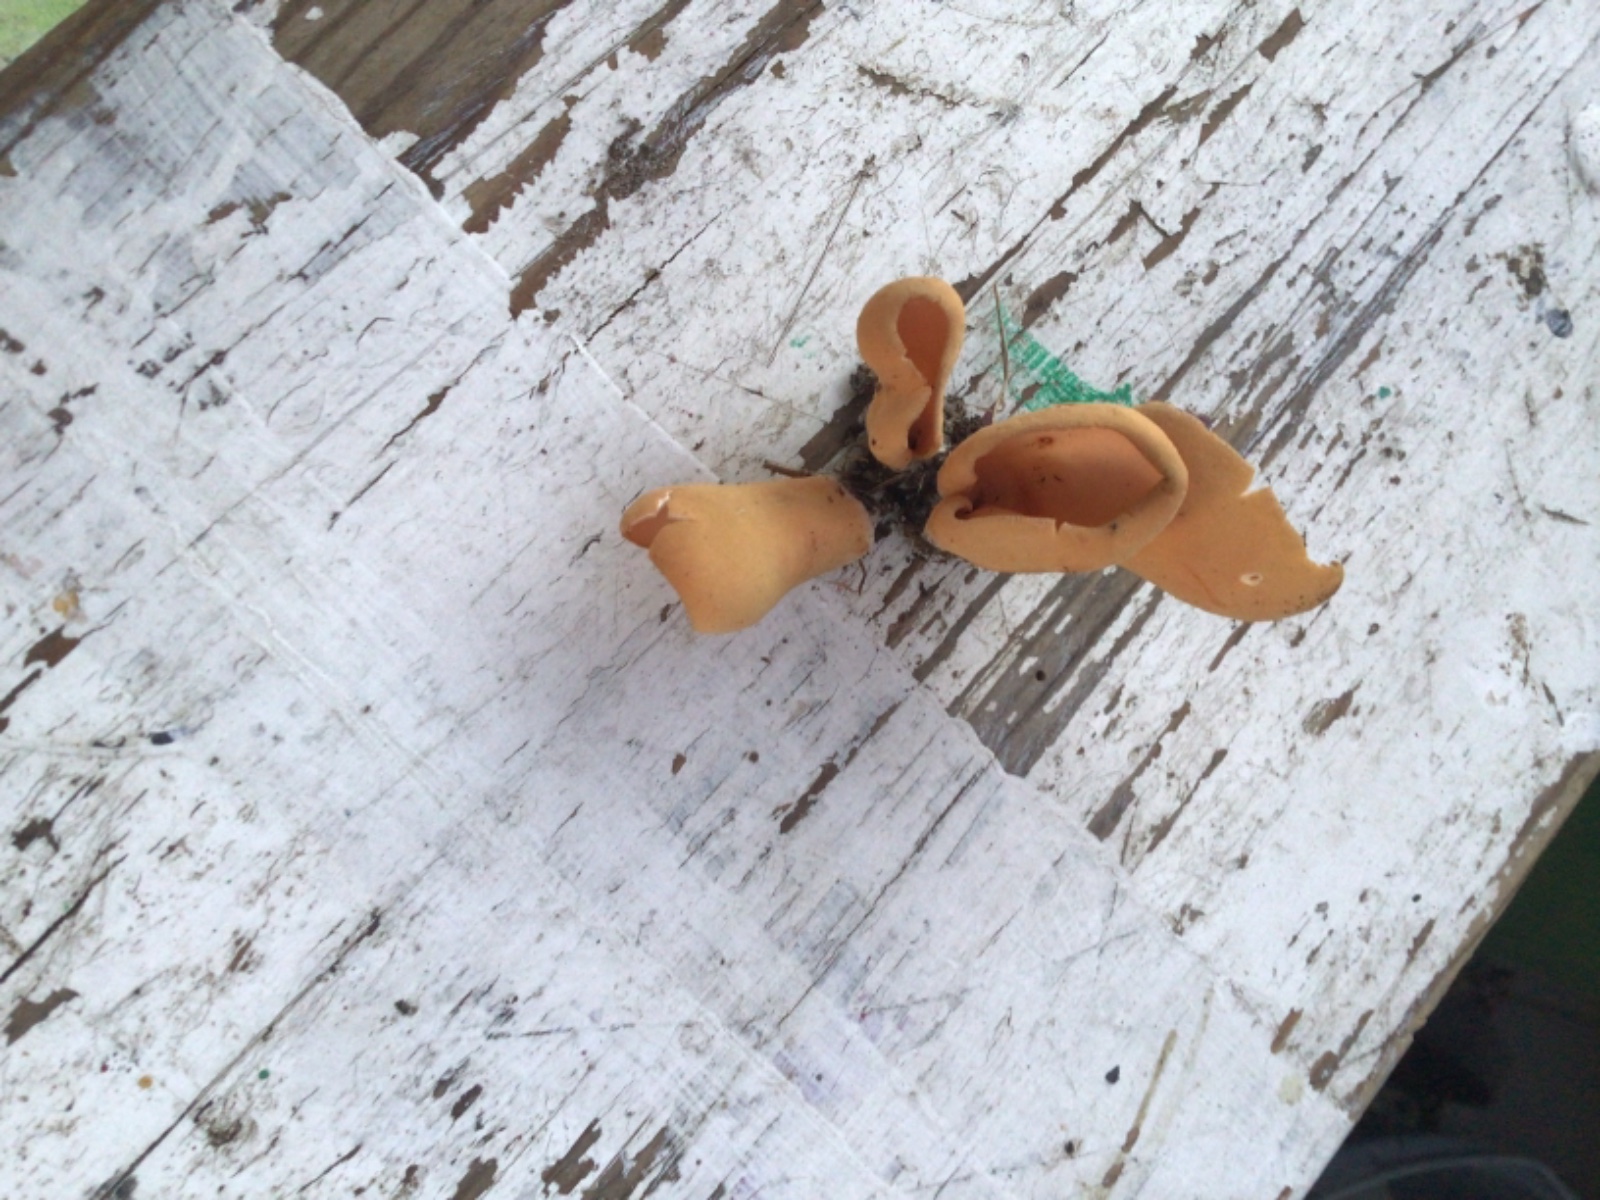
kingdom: Fungi
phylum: Ascomycota
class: Pezizomycetes
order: Pezizales
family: Otideaceae
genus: Otidea
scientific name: Otidea onotica
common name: æsel-ørebæger
